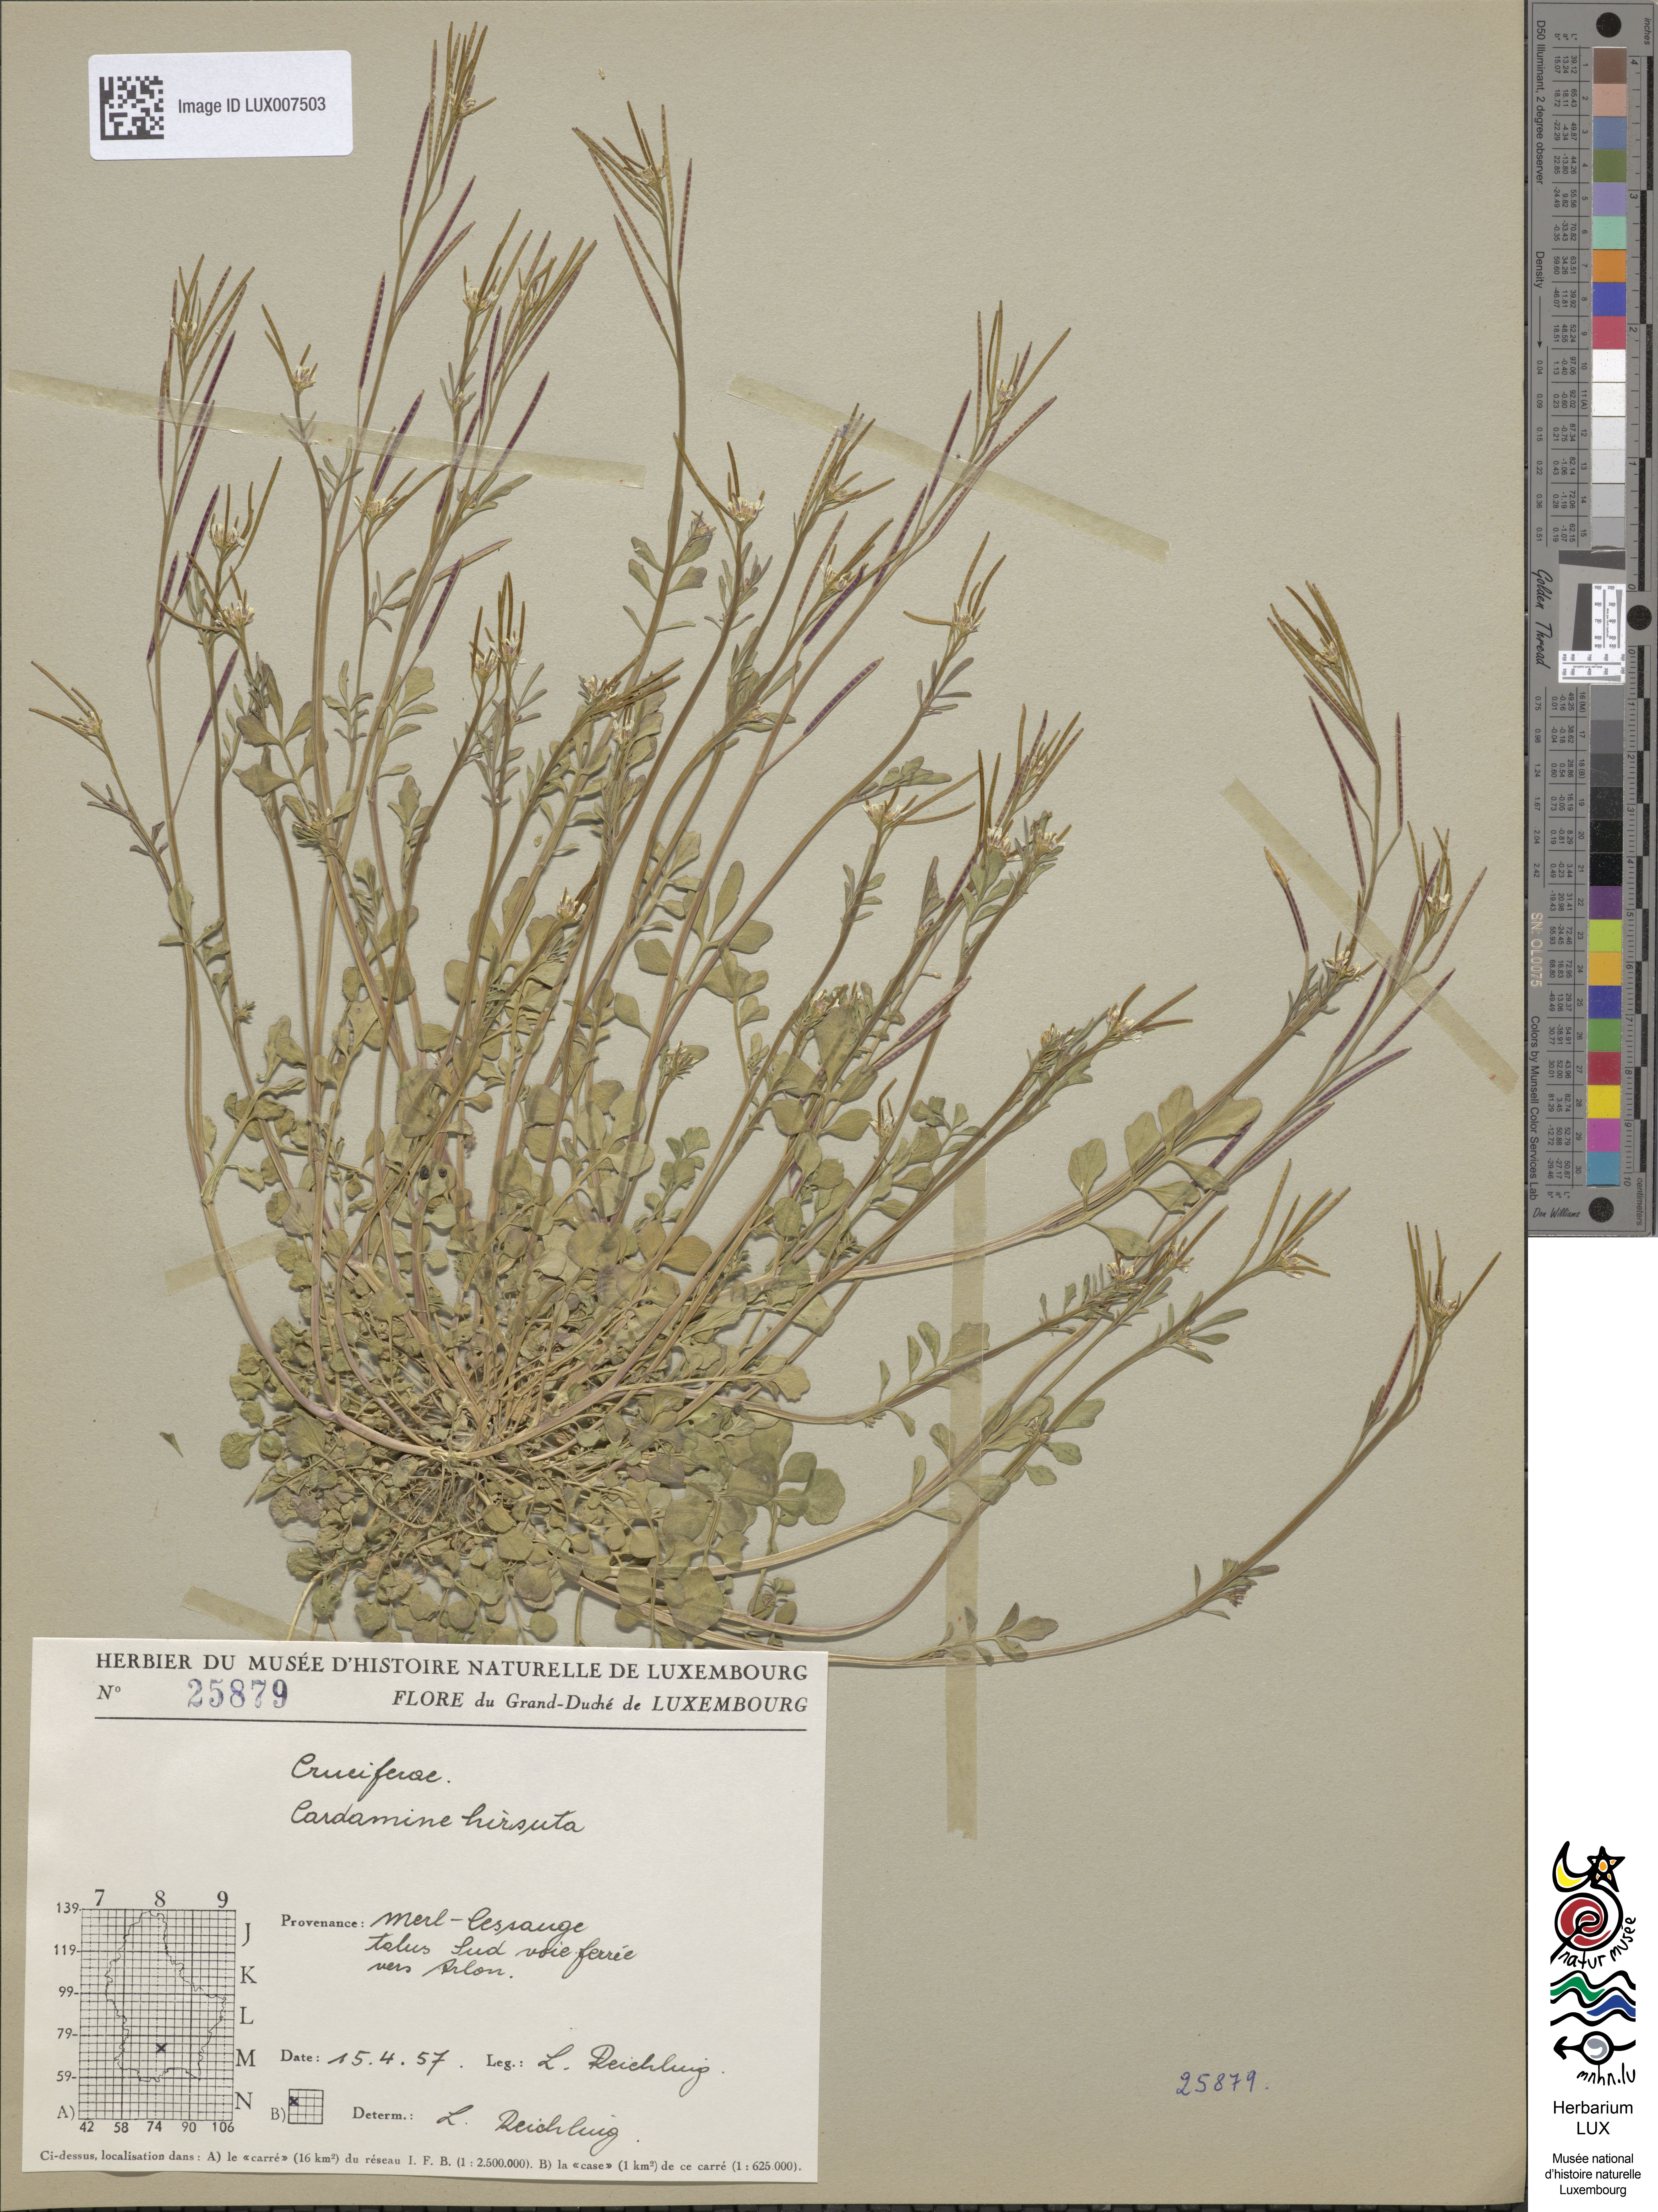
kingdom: Plantae
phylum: Tracheophyta
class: Magnoliopsida
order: Brassicales
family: Brassicaceae
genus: Cardamine
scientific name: Cardamine hirsuta
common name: Hairy bittercress
